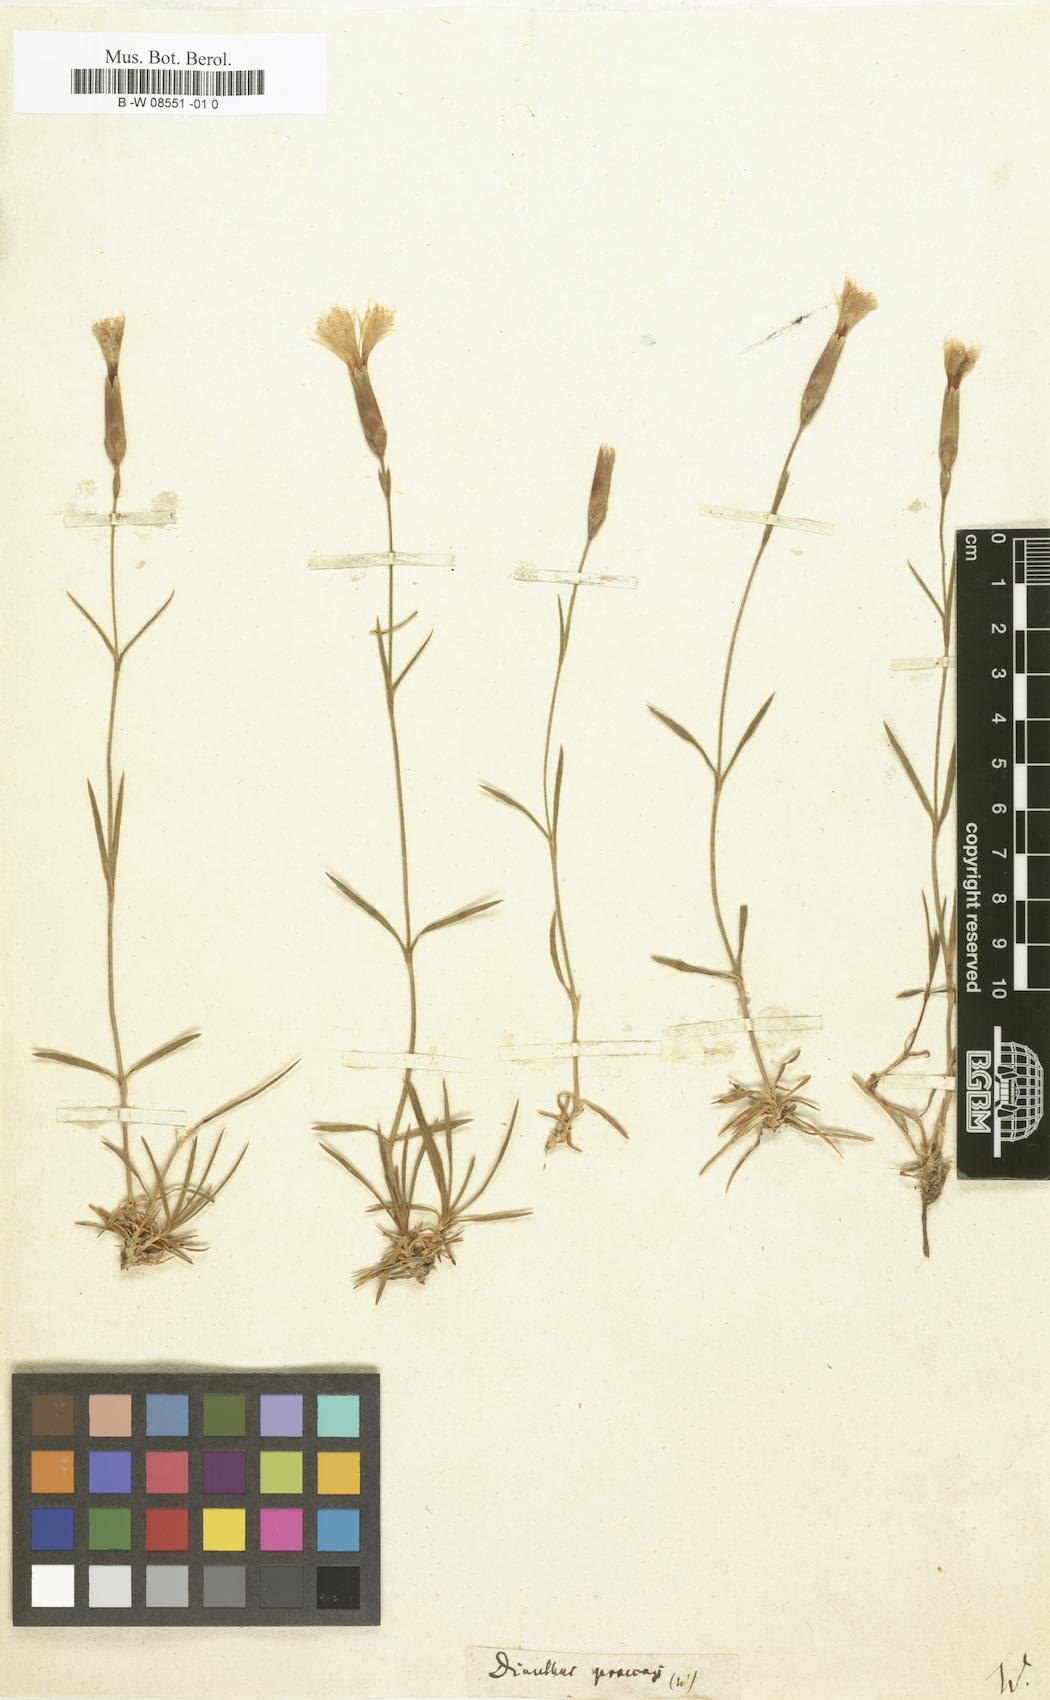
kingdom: Plantae
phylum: Tracheophyta
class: Magnoliopsida
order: Caryophyllales
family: Caryophyllaceae
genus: Dianthus
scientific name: Dianthus
